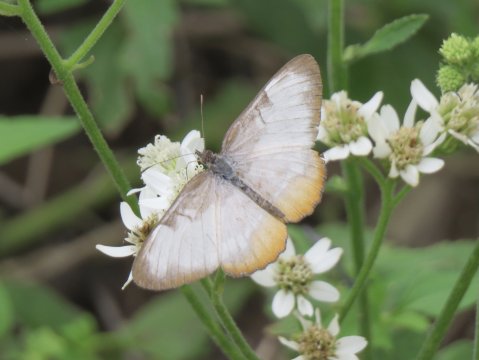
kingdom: Animalia
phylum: Arthropoda
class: Insecta
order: Lepidoptera
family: Nymphalidae
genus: Mestra
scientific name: Mestra amymone
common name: Common Mestra
